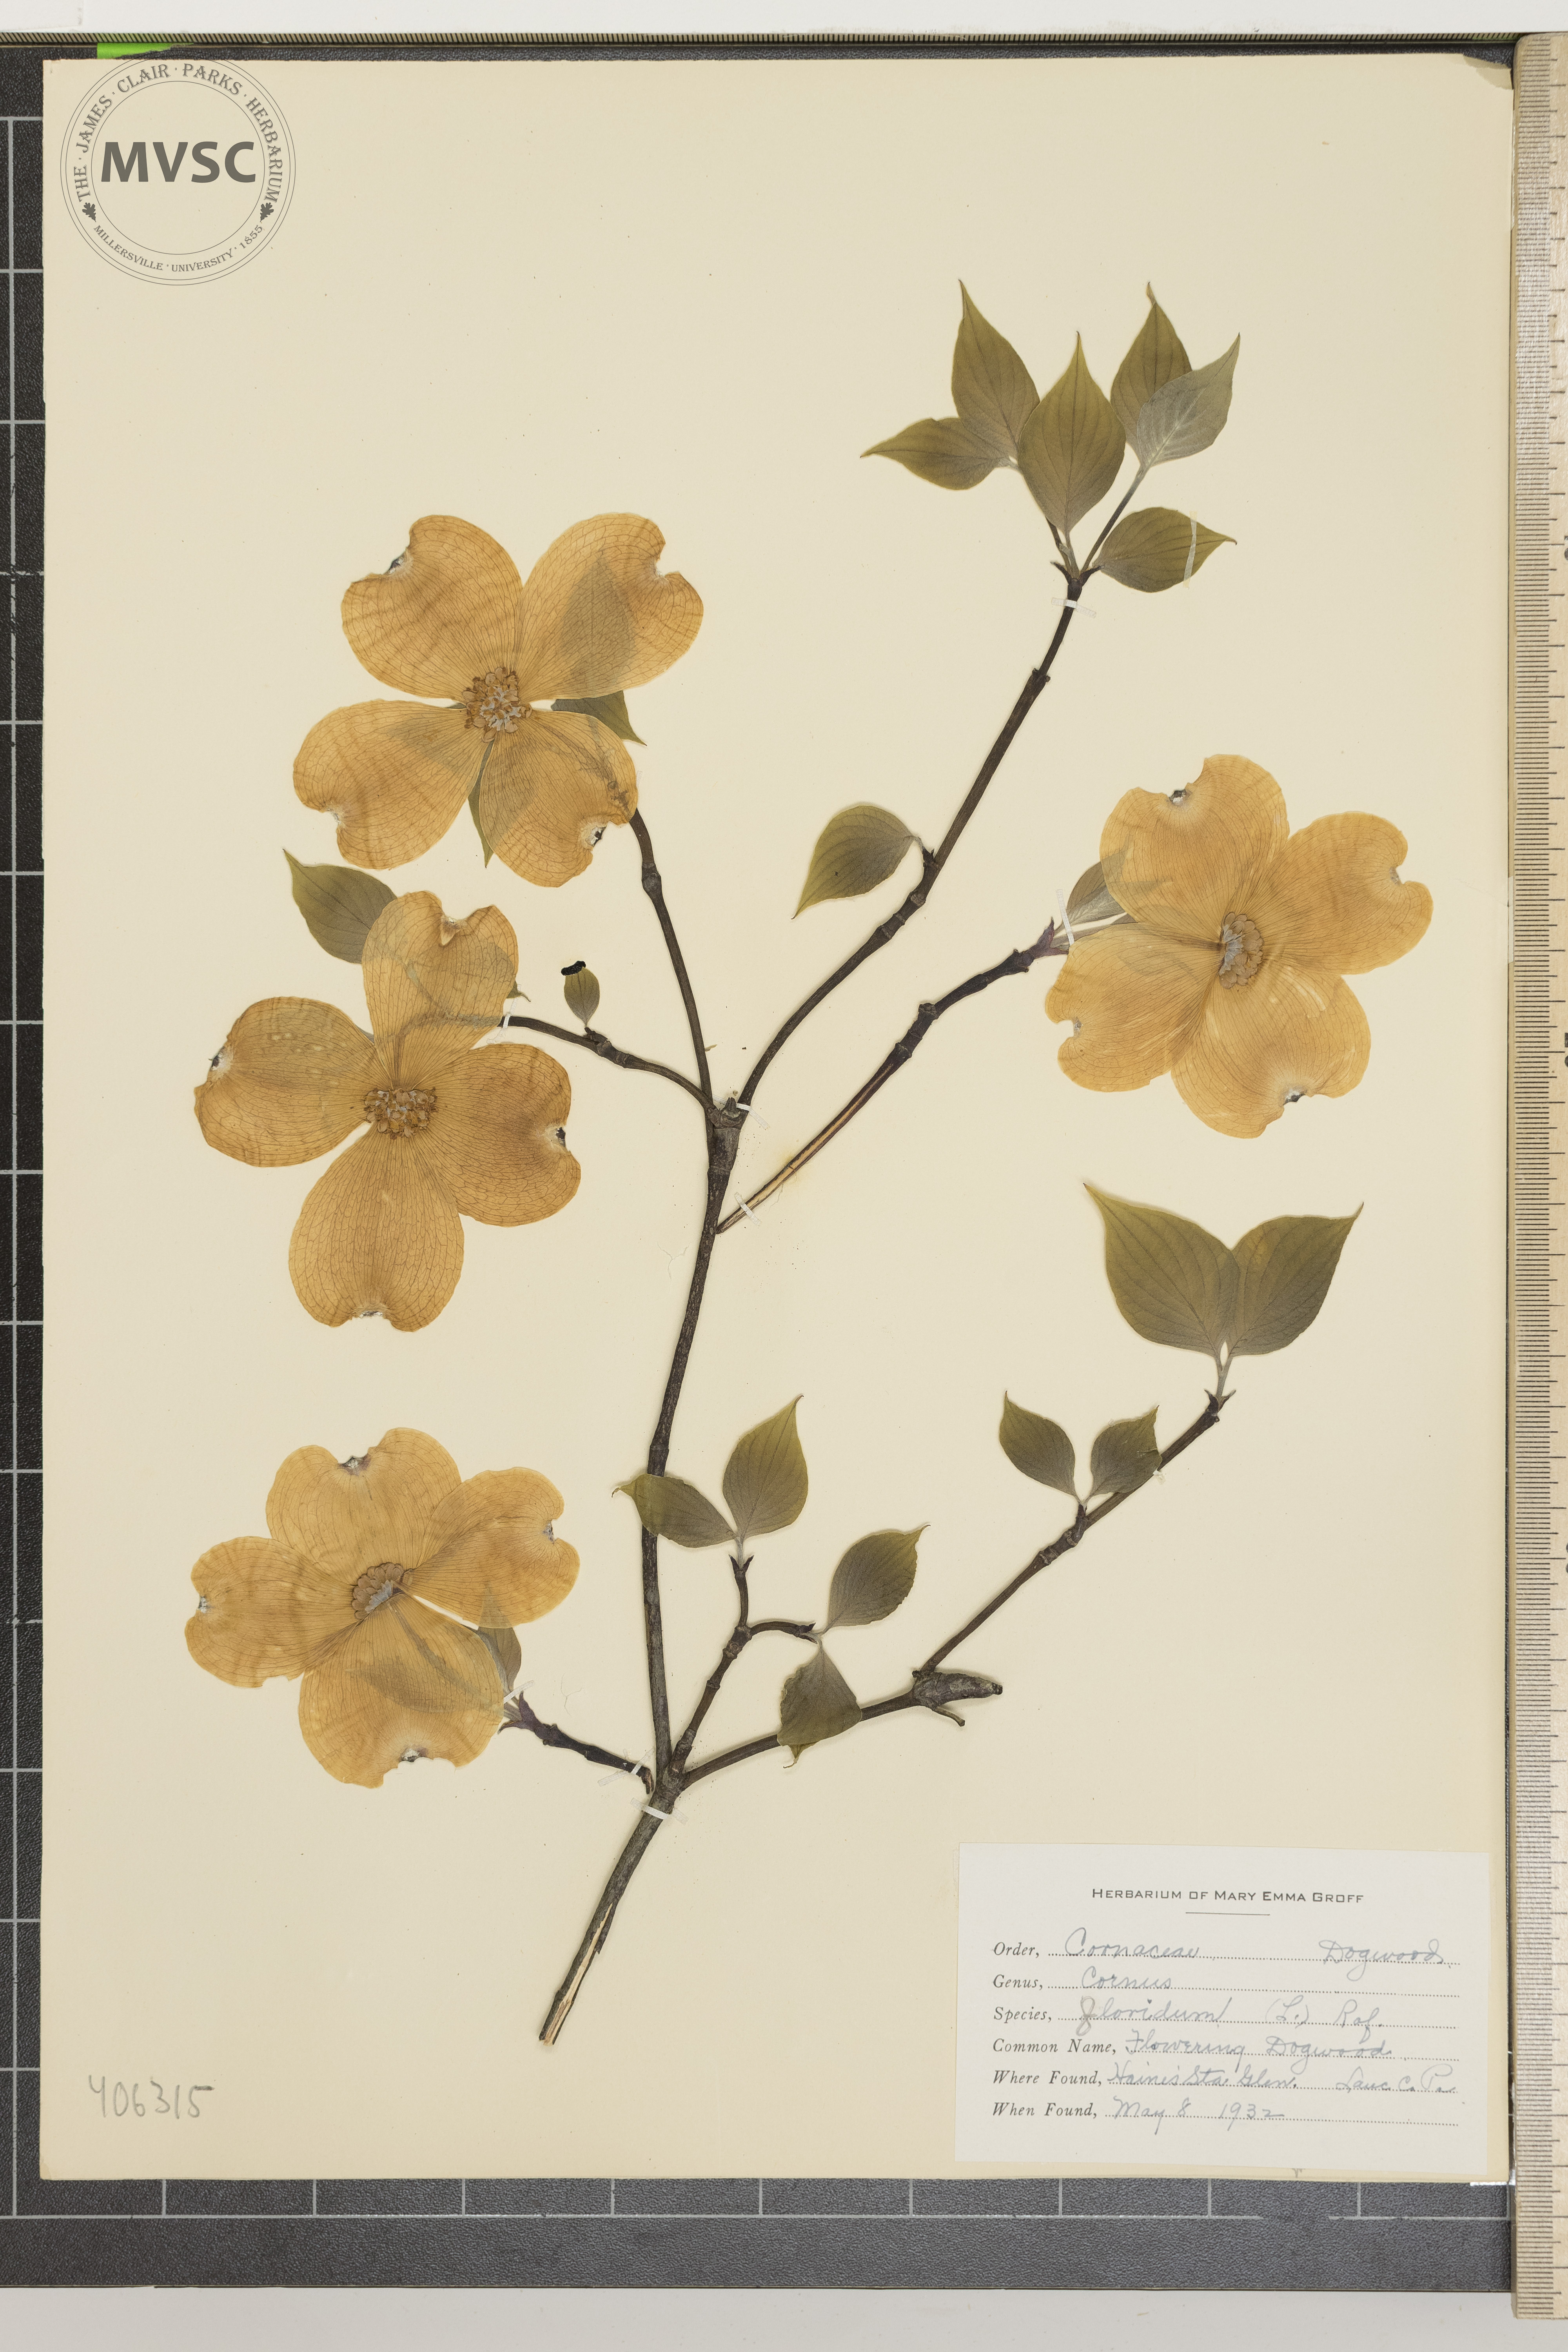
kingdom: Plantae
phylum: Tracheophyta
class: Magnoliopsida
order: Cornales
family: Cornaceae
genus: Cornus
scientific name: Cornus florida
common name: flowering Dogwood
